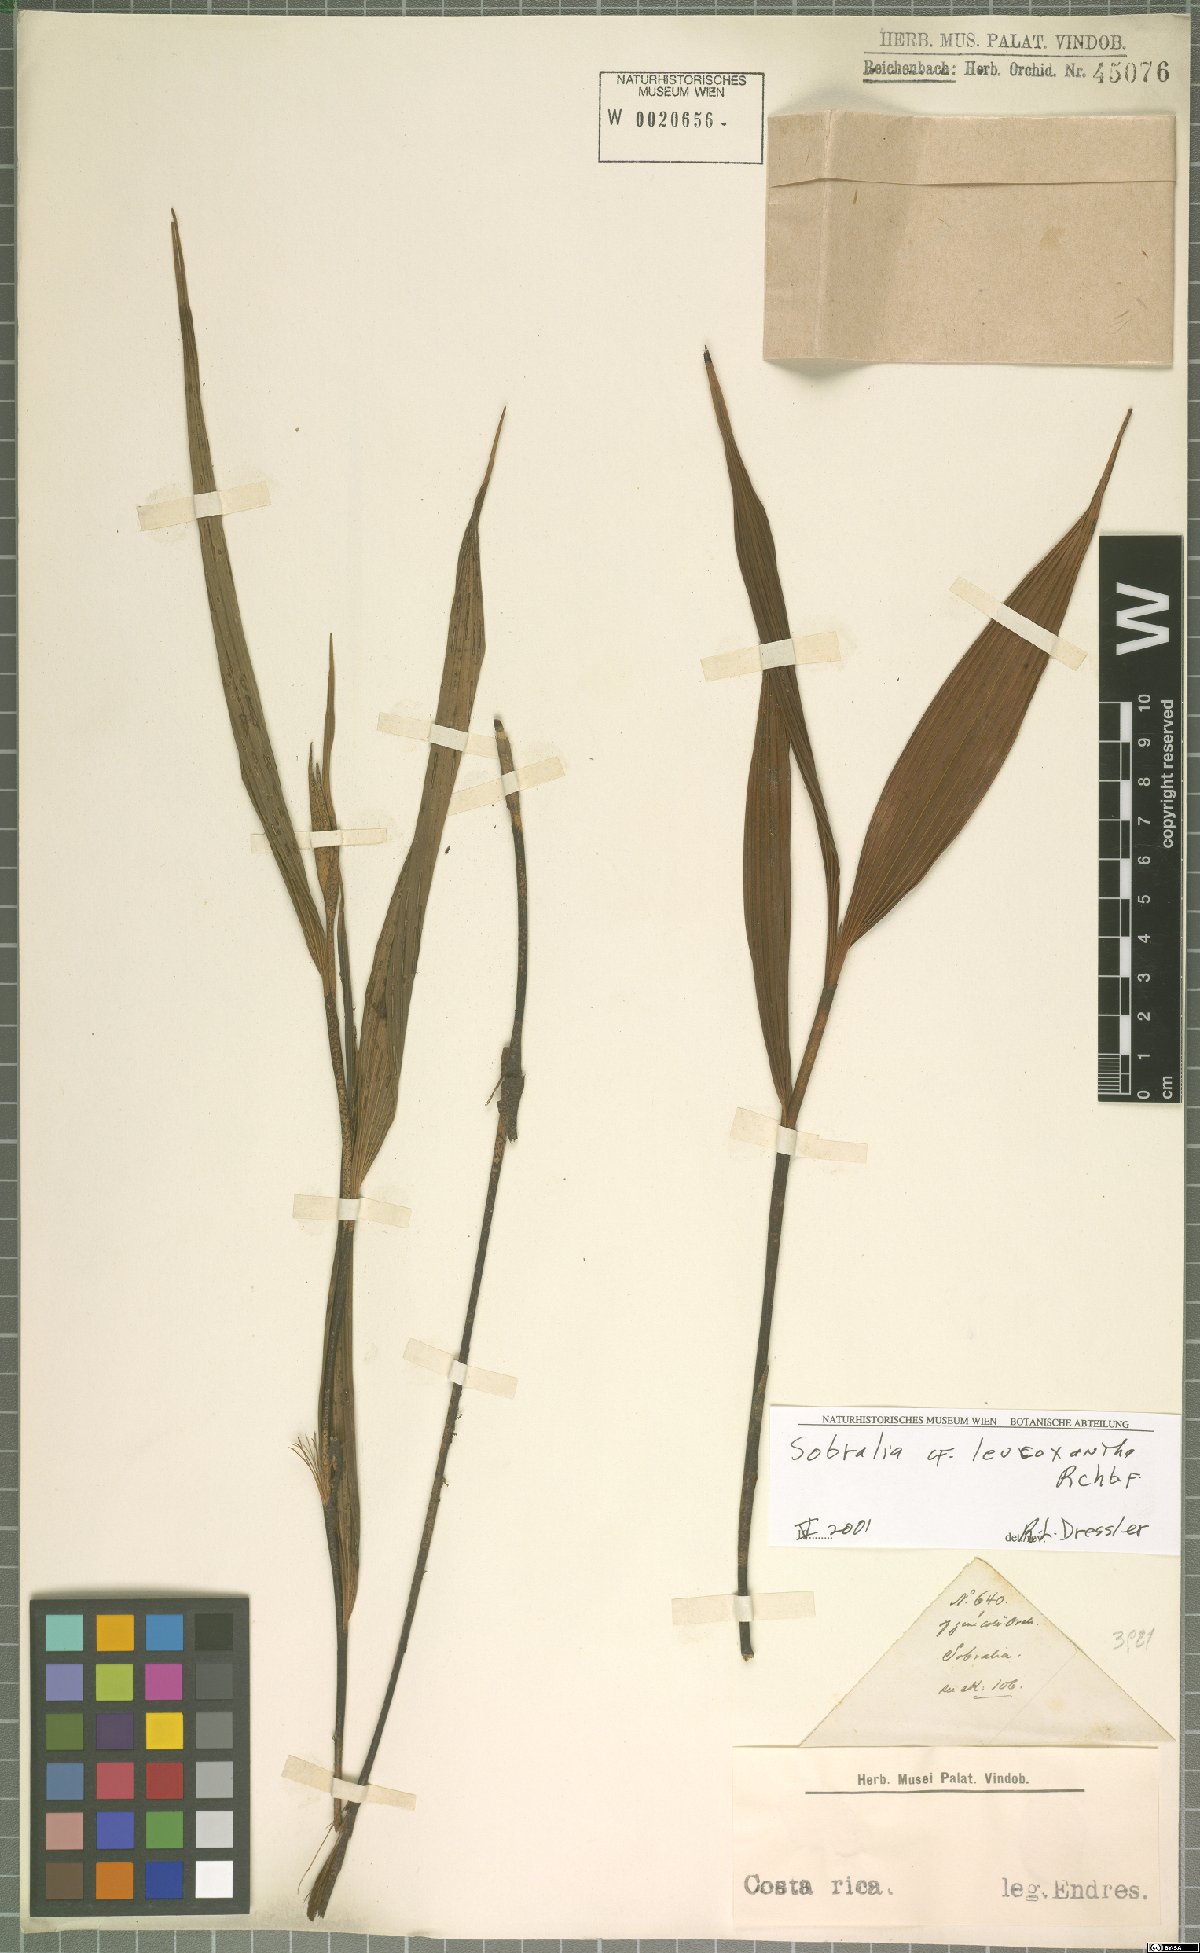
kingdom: Plantae
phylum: Tracheophyta
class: Liliopsida
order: Asparagales
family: Orchidaceae
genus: Sobralia
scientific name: Sobralia leucoxantha
